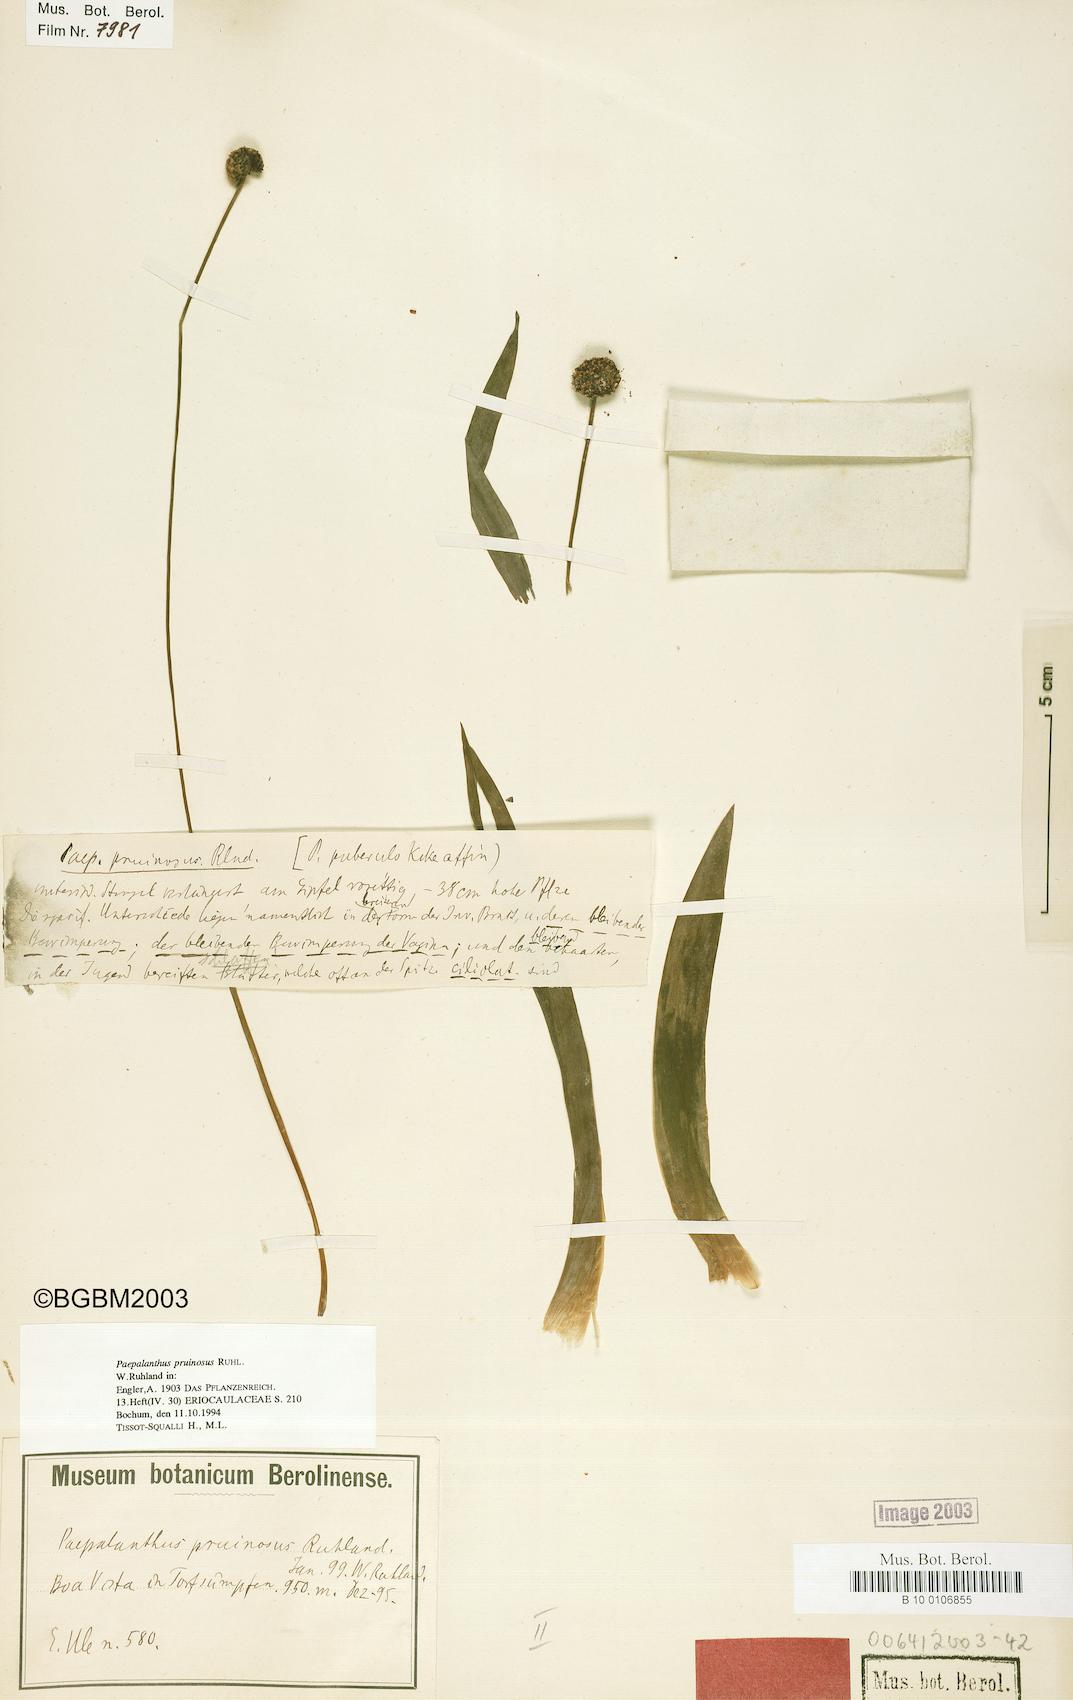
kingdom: Plantae
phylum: Tracheophyta
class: Liliopsida
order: Poales
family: Eriocaulaceae
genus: Paepalanthus
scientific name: Paepalanthus pruinosus
